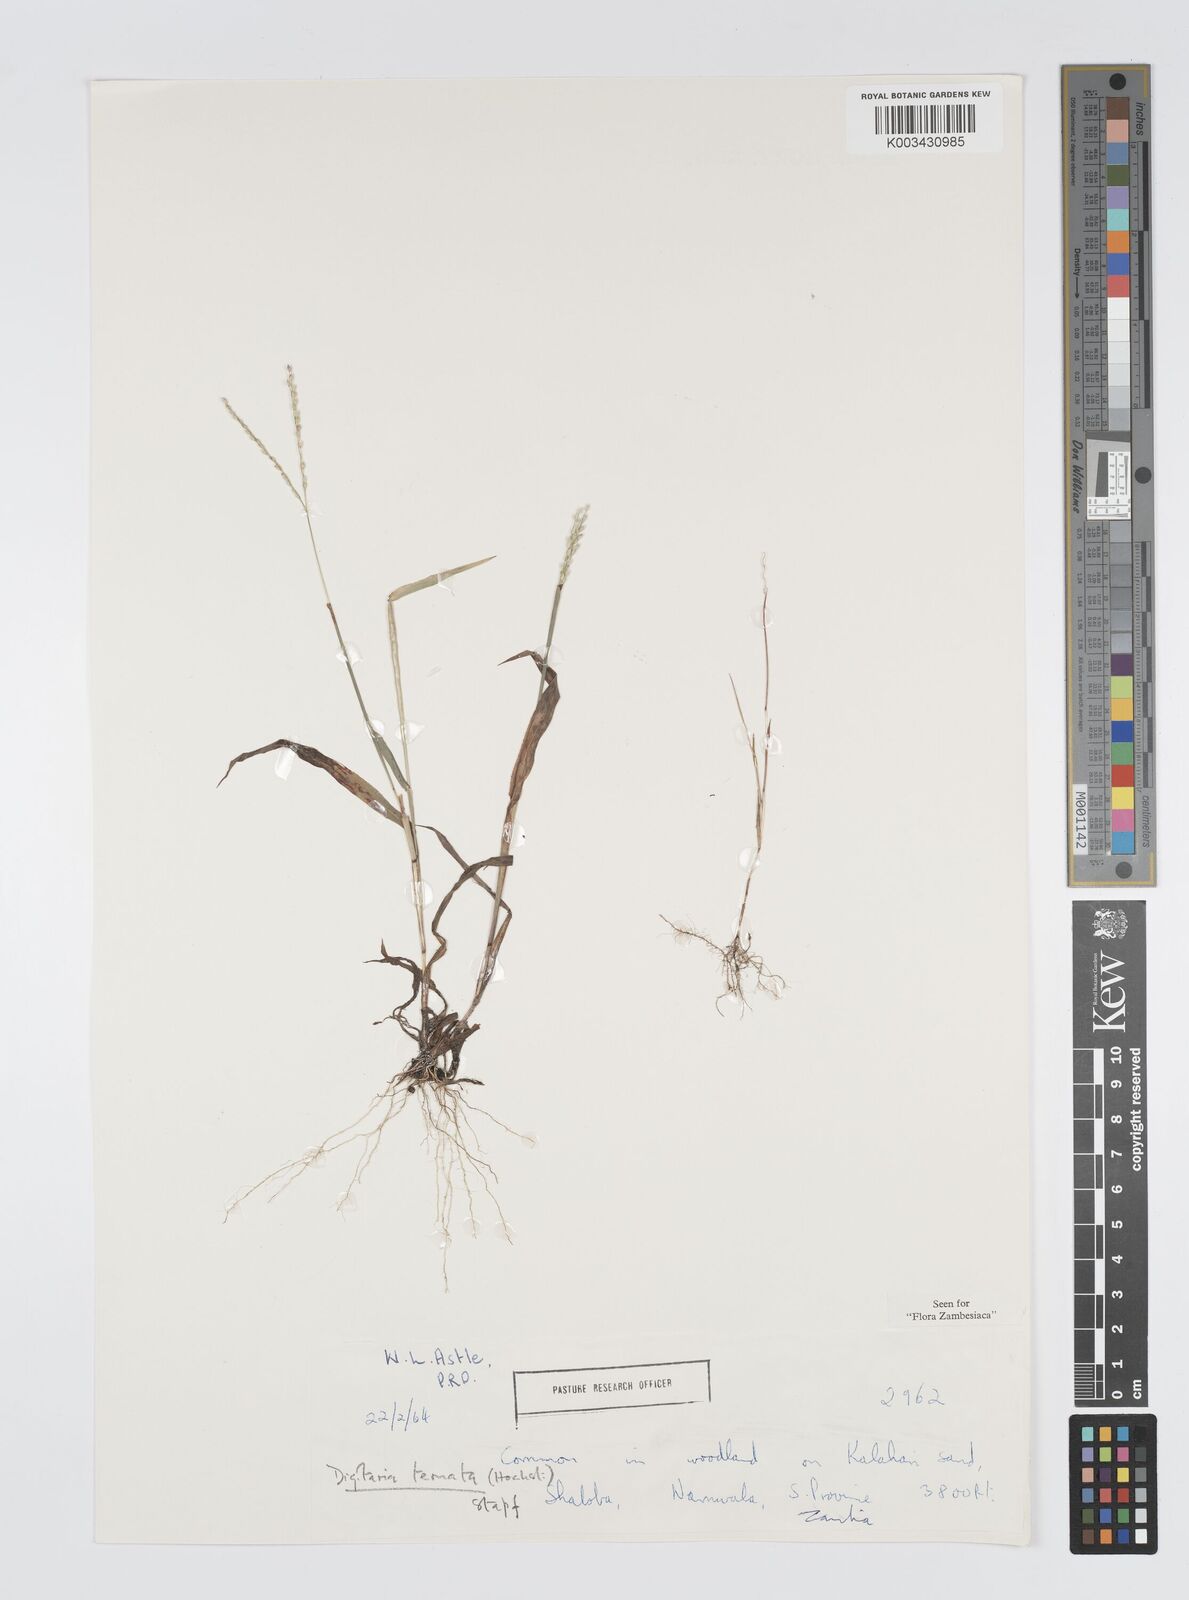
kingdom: Plantae
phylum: Tracheophyta
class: Liliopsida
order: Poales
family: Poaceae
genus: Digitaria
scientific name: Digitaria angolensis
